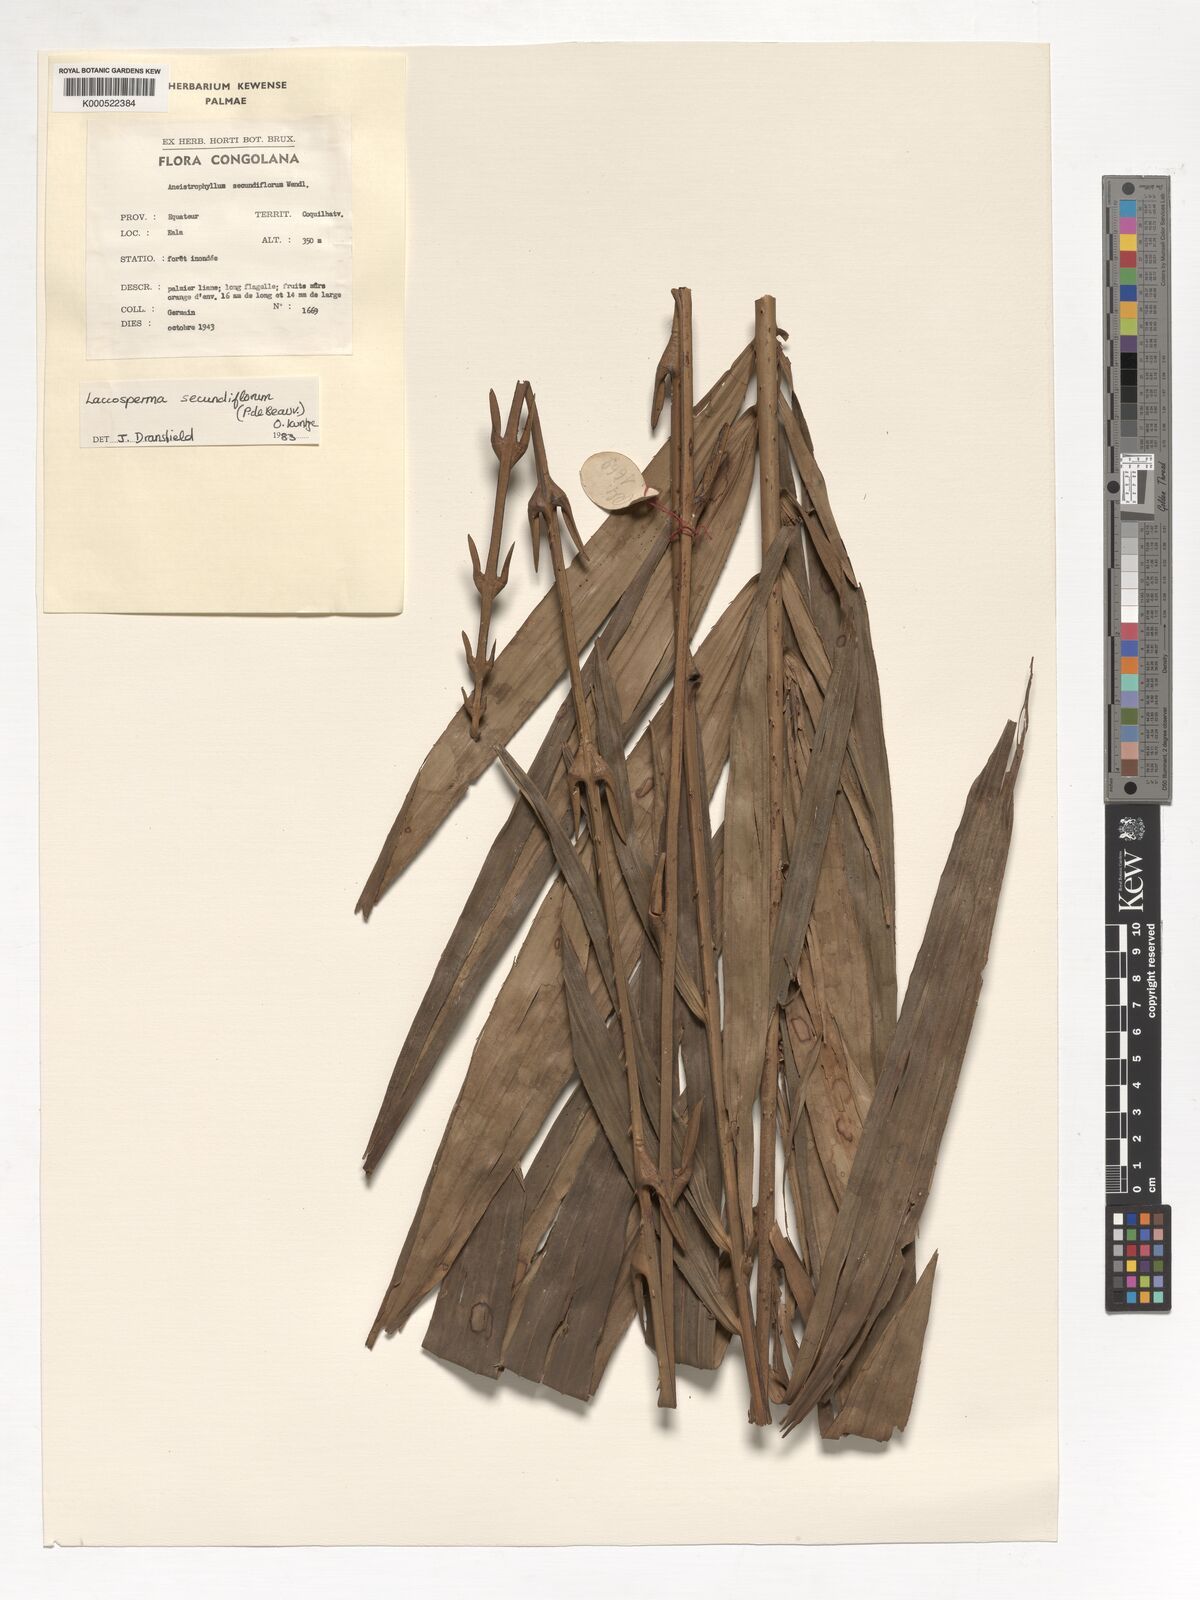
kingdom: Plantae
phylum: Tracheophyta
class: Liliopsida
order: Arecales
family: Arecaceae
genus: Laccosperma
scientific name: Laccosperma secundiflorum
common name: Rattan
